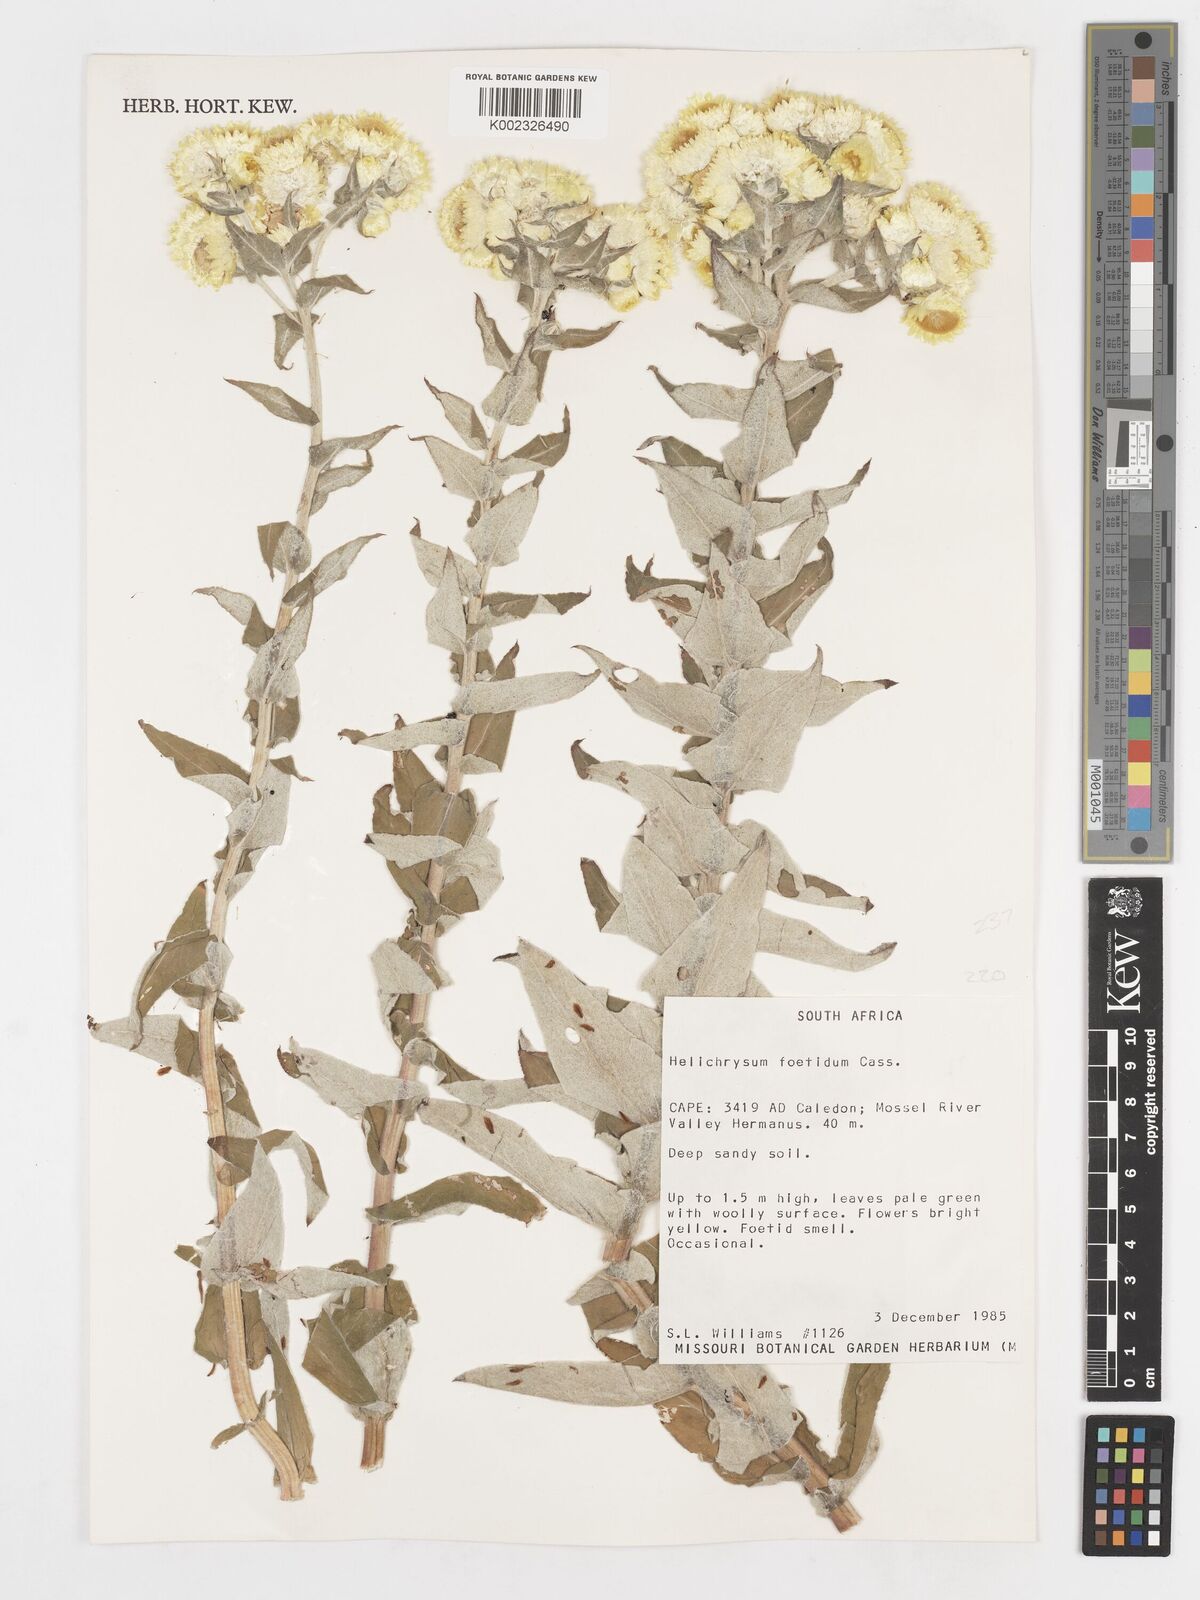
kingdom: Plantae
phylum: Tracheophyta
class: Magnoliopsida
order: Asterales
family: Asteraceae
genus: Helichrysum
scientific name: Helichrysum foetidum
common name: Stinking everlasting
